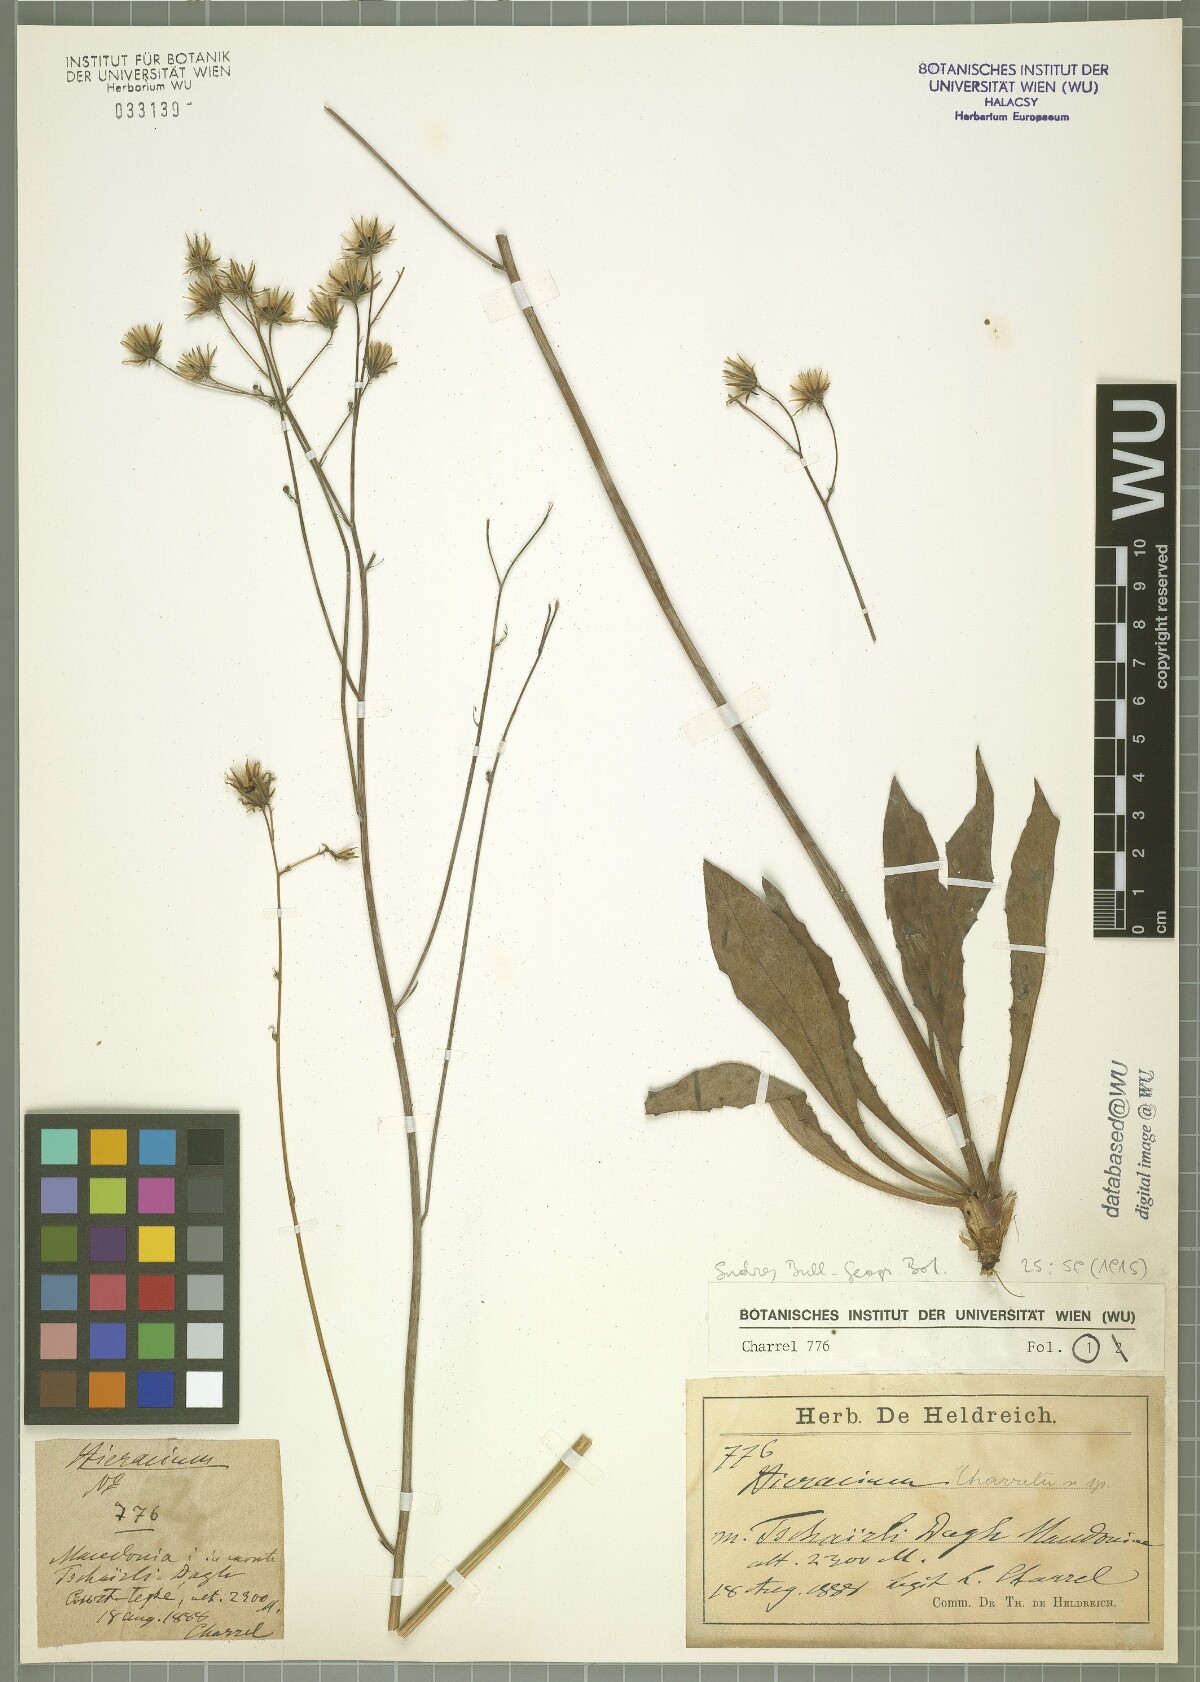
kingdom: Plantae
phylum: Tracheophyta
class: Magnoliopsida
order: Asterales
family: Asteraceae
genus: Hieracium
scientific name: Hieracium sparsum
